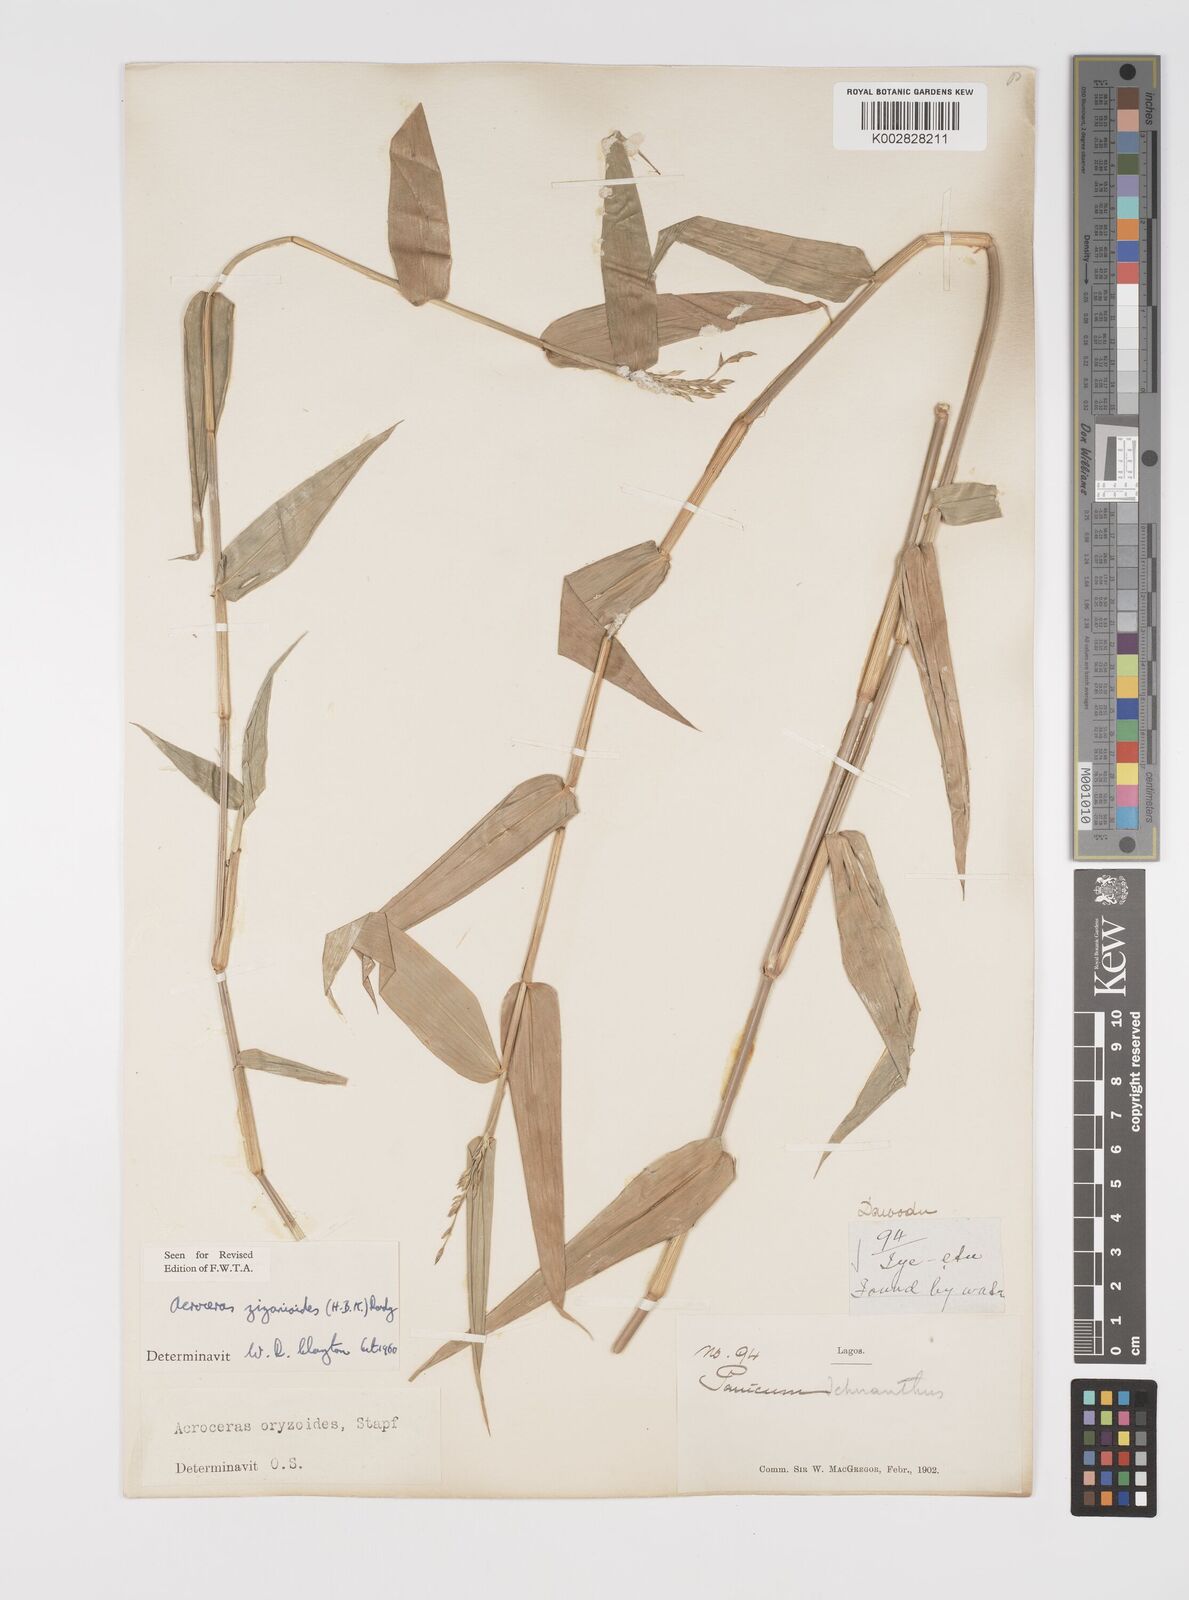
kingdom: Plantae
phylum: Tracheophyta
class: Liliopsida
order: Poales
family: Poaceae
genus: Acroceras
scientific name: Acroceras zizanioides
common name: Oat grass
